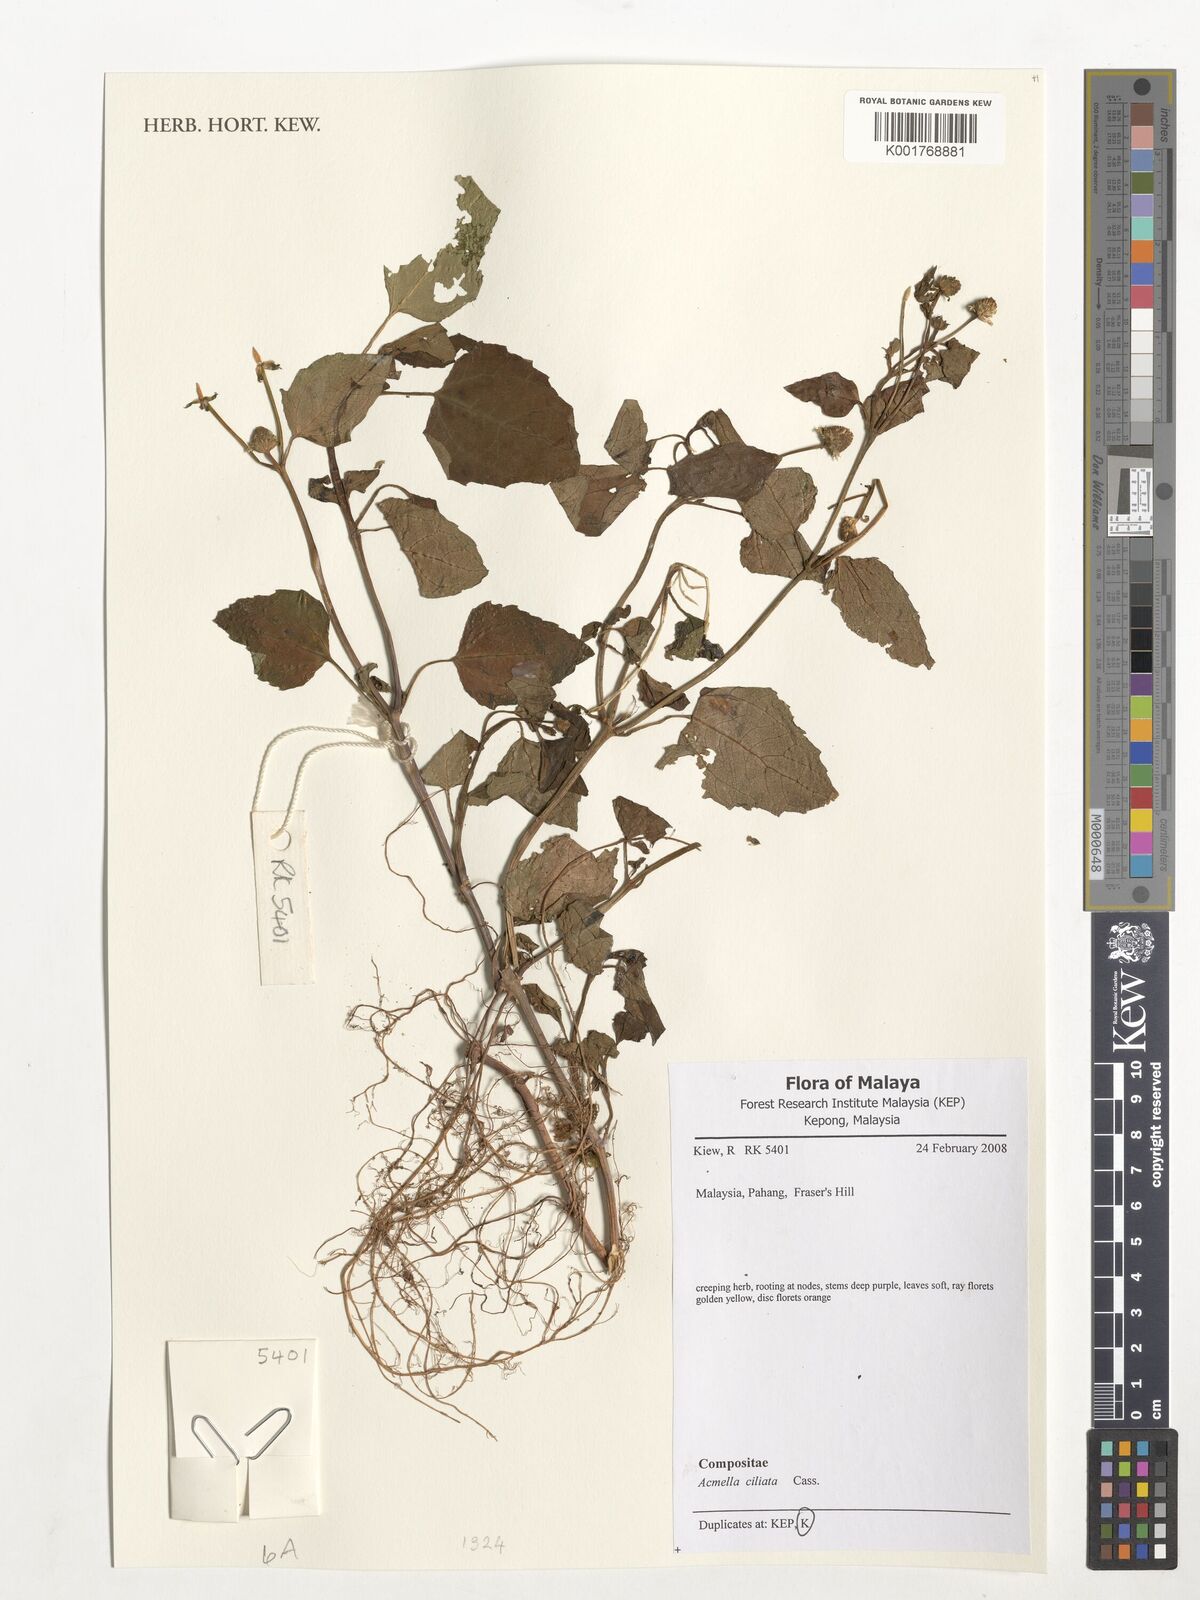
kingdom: Plantae
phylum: Tracheophyta
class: Magnoliopsida
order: Asterales
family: Asteraceae
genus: Acmella
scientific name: Acmella ciliata
